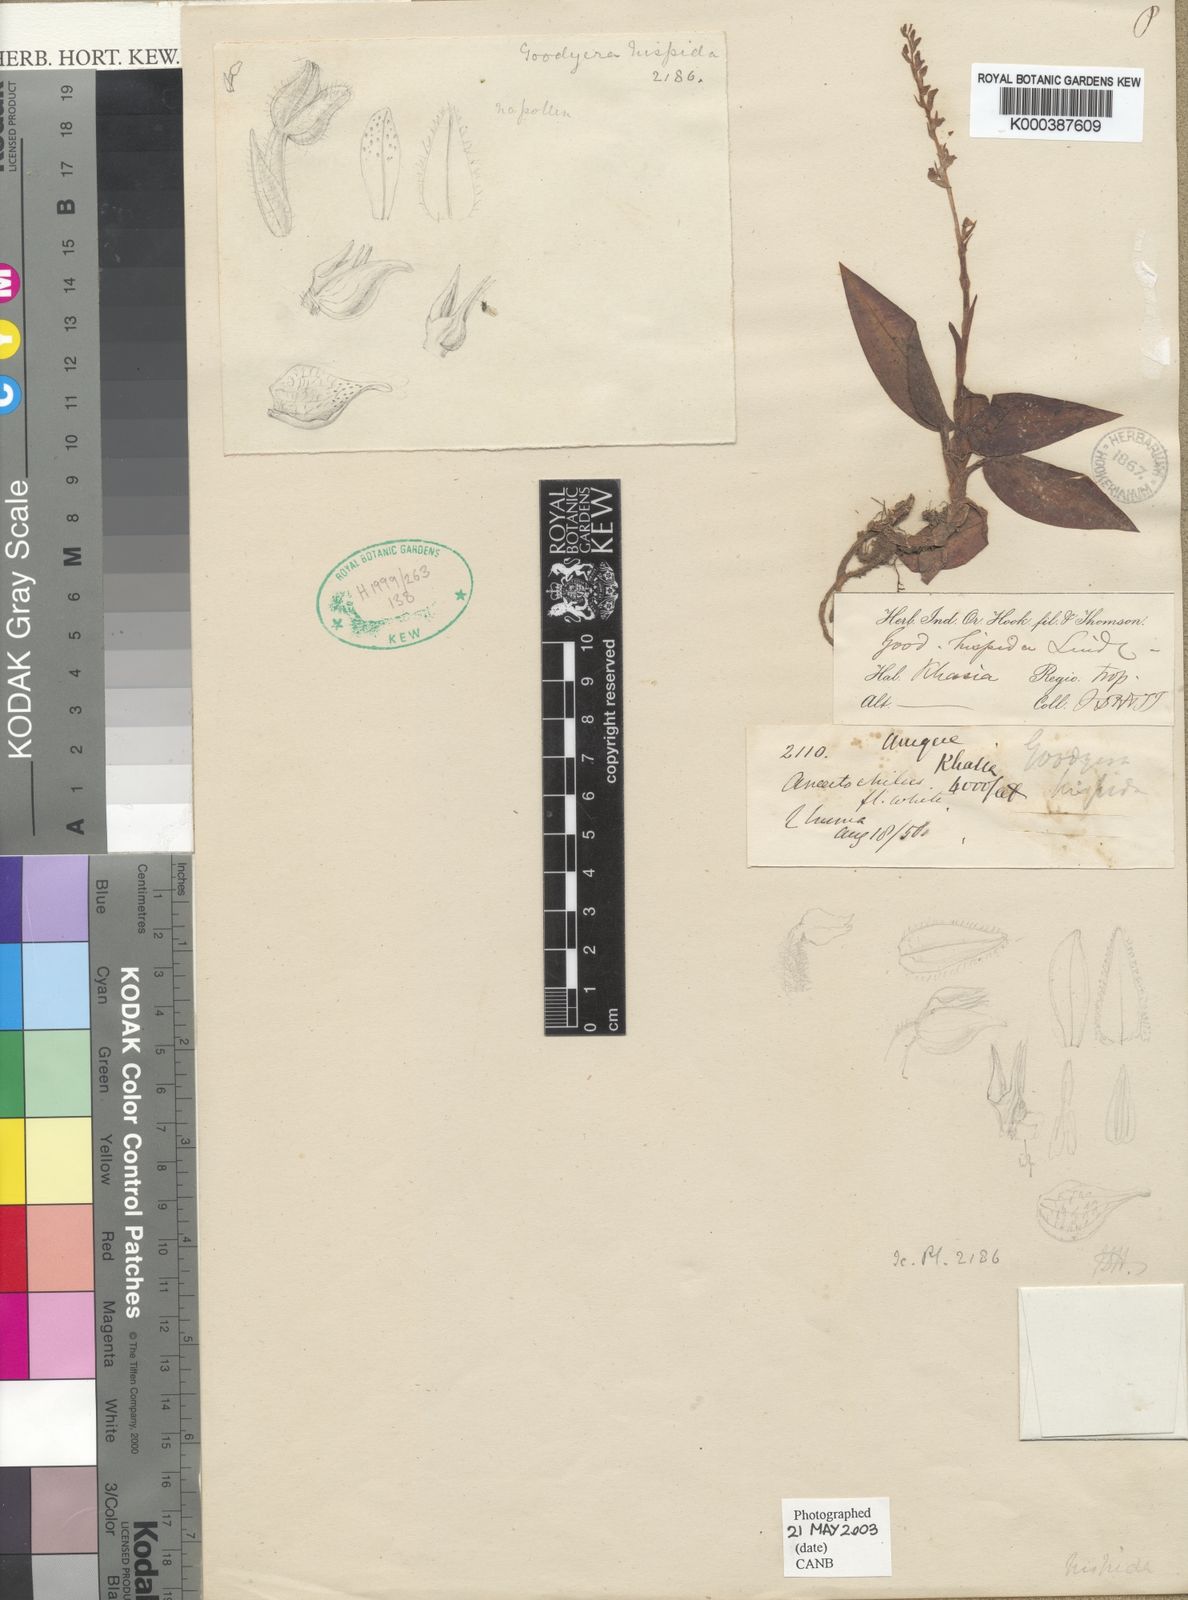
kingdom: Plantae
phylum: Tracheophyta
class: Liliopsida
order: Asparagales
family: Orchidaceae
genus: Goodyera
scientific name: Goodyera hispida
